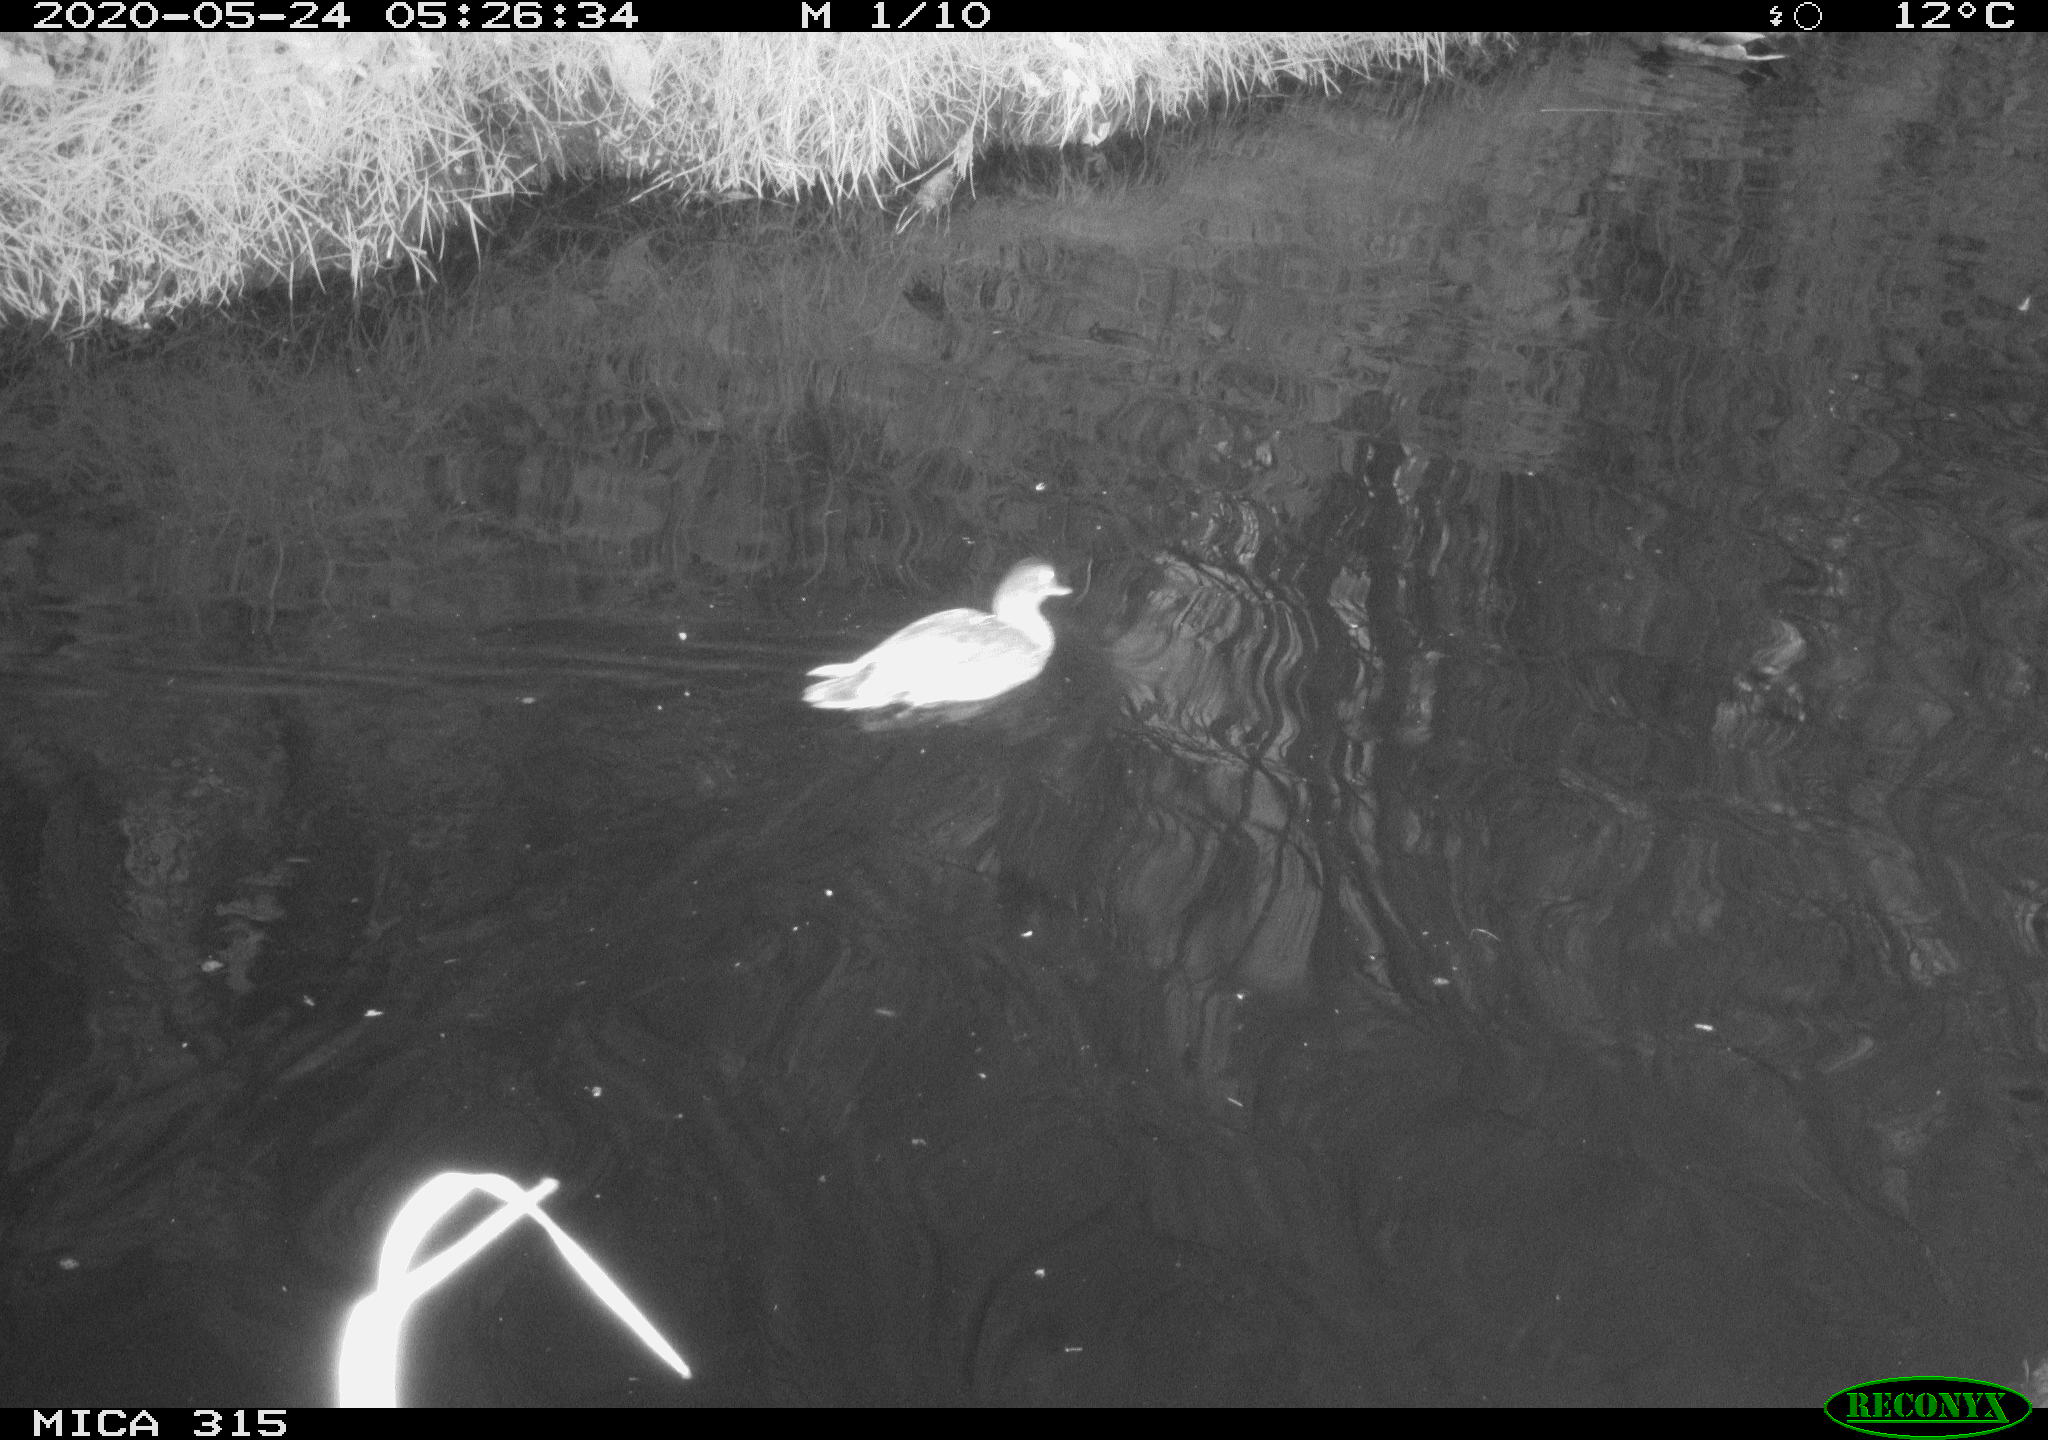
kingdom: Animalia
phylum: Chordata
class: Aves
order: Anseriformes
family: Anatidae
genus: Anas
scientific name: Anas platyrhynchos
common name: Mallard
